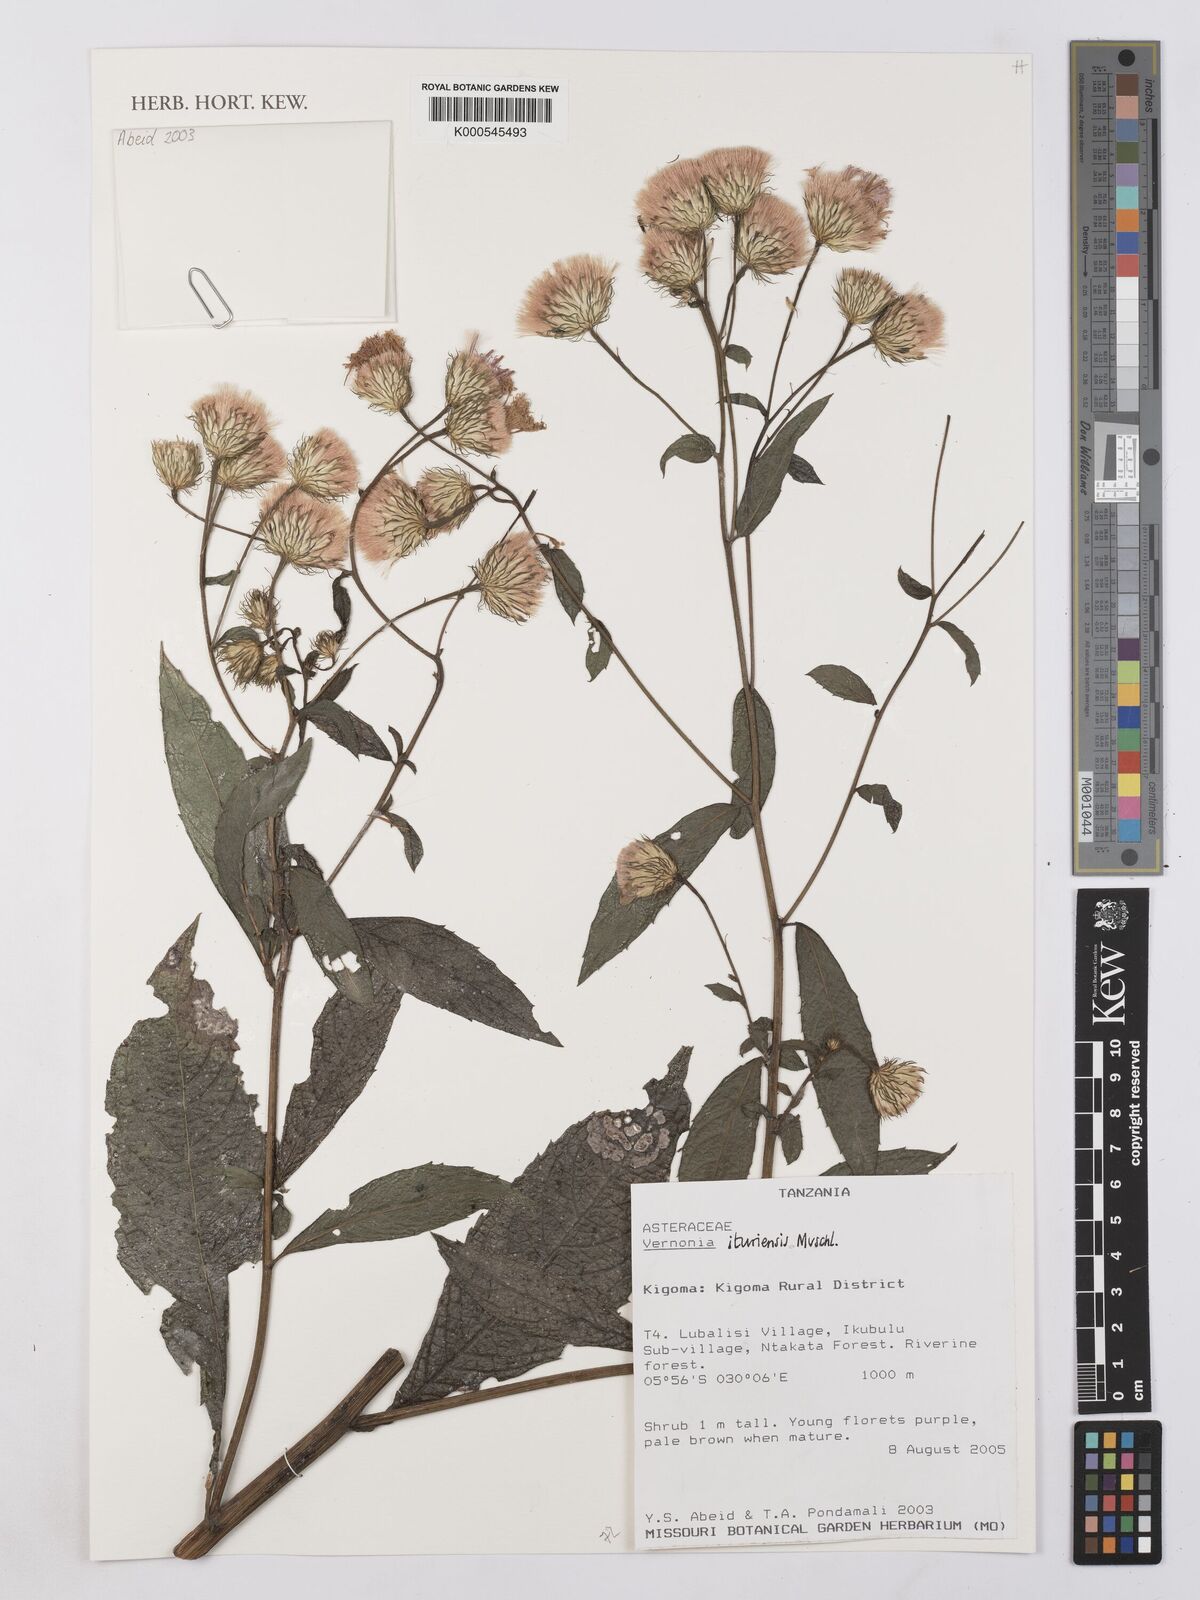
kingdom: Plantae
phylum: Tracheophyta
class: Magnoliopsida
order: Asterales
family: Asteraceae
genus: Linzia
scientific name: Linzia ituriensis
